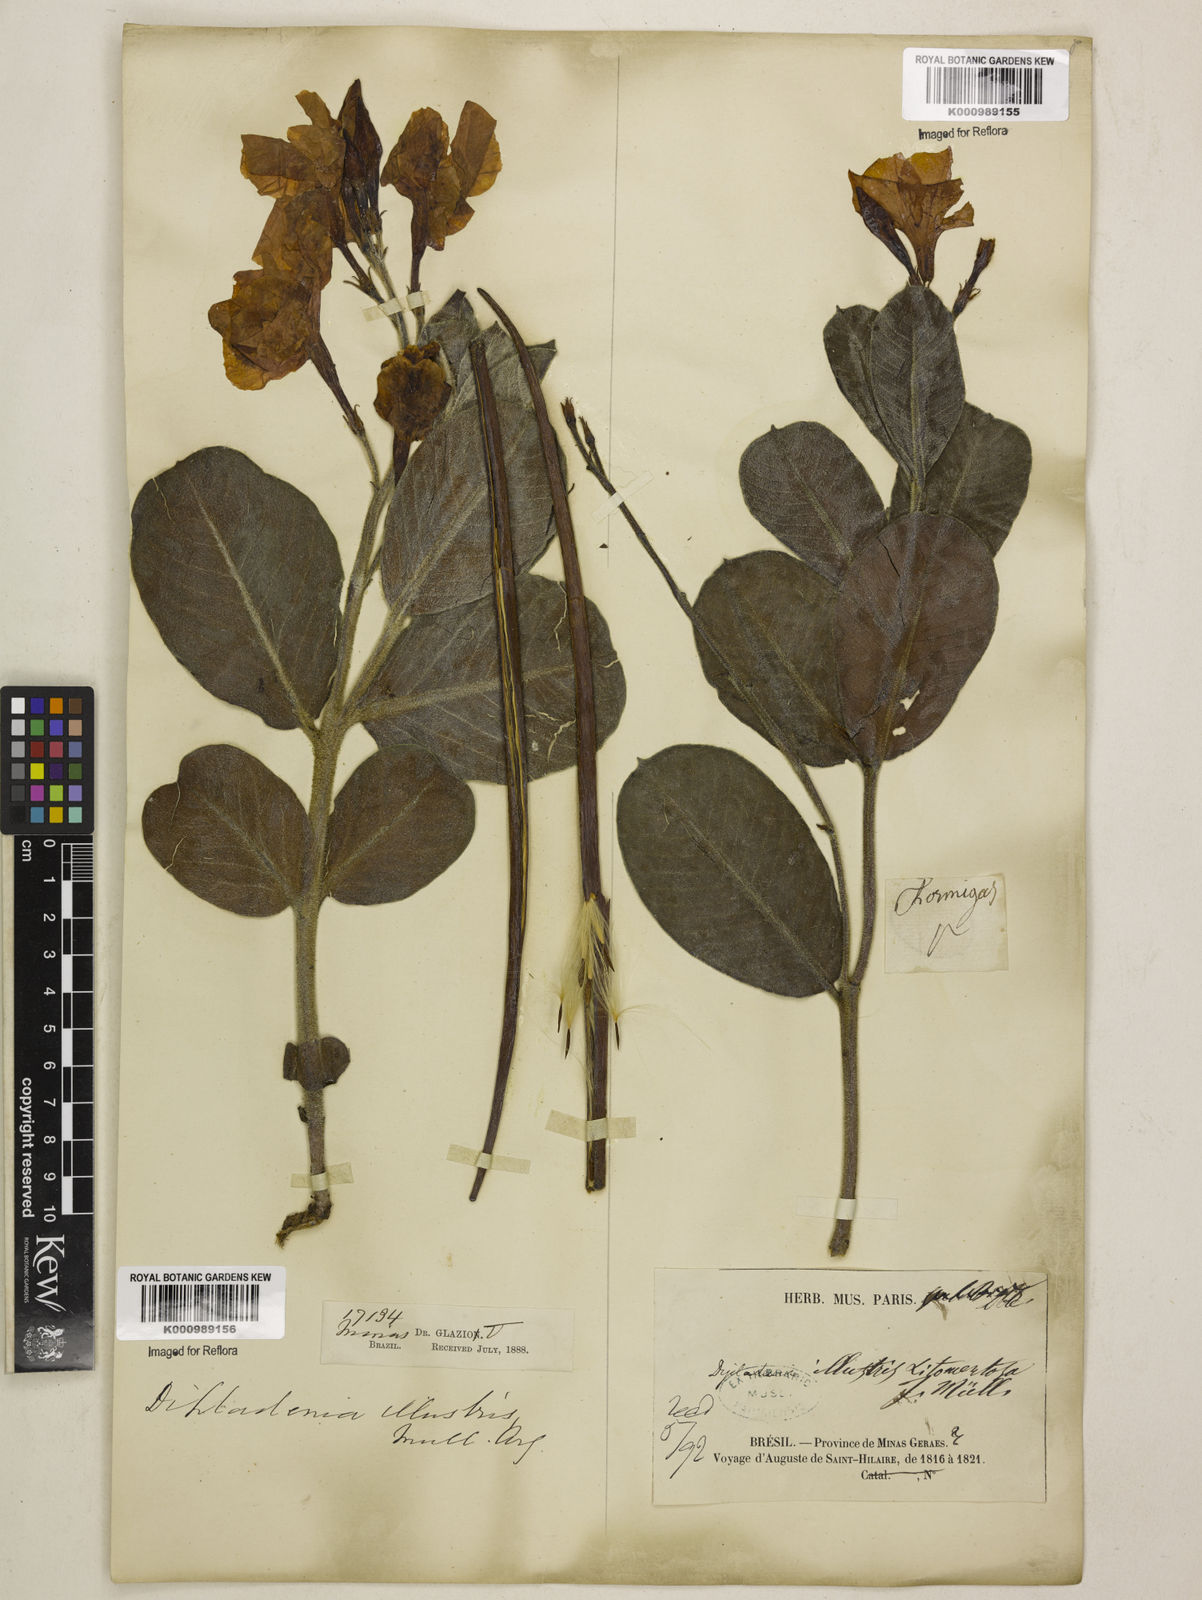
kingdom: Plantae
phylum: Tracheophyta
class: Magnoliopsida
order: Gentianales
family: Apocynaceae
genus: Mandevilla
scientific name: Mandevilla illustris
